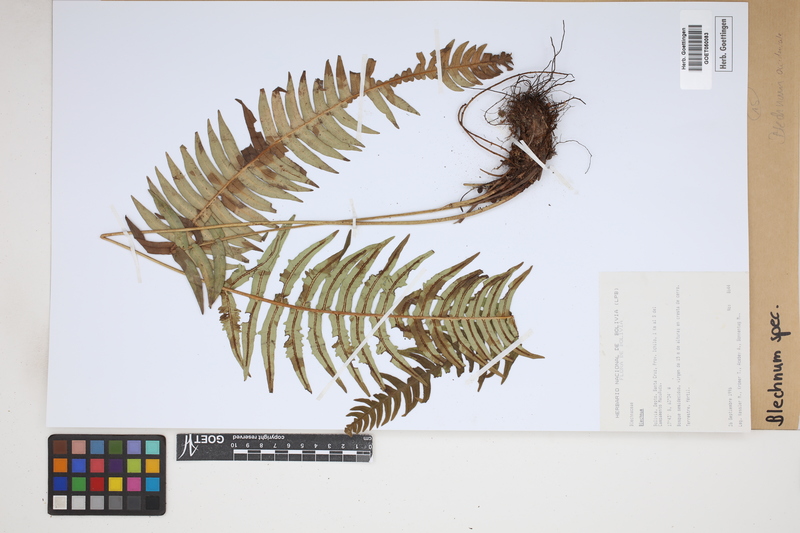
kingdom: Plantae
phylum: Tracheophyta
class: Polypodiopsida
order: Polypodiales
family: Blechnaceae
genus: Blechnum
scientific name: Blechnum
